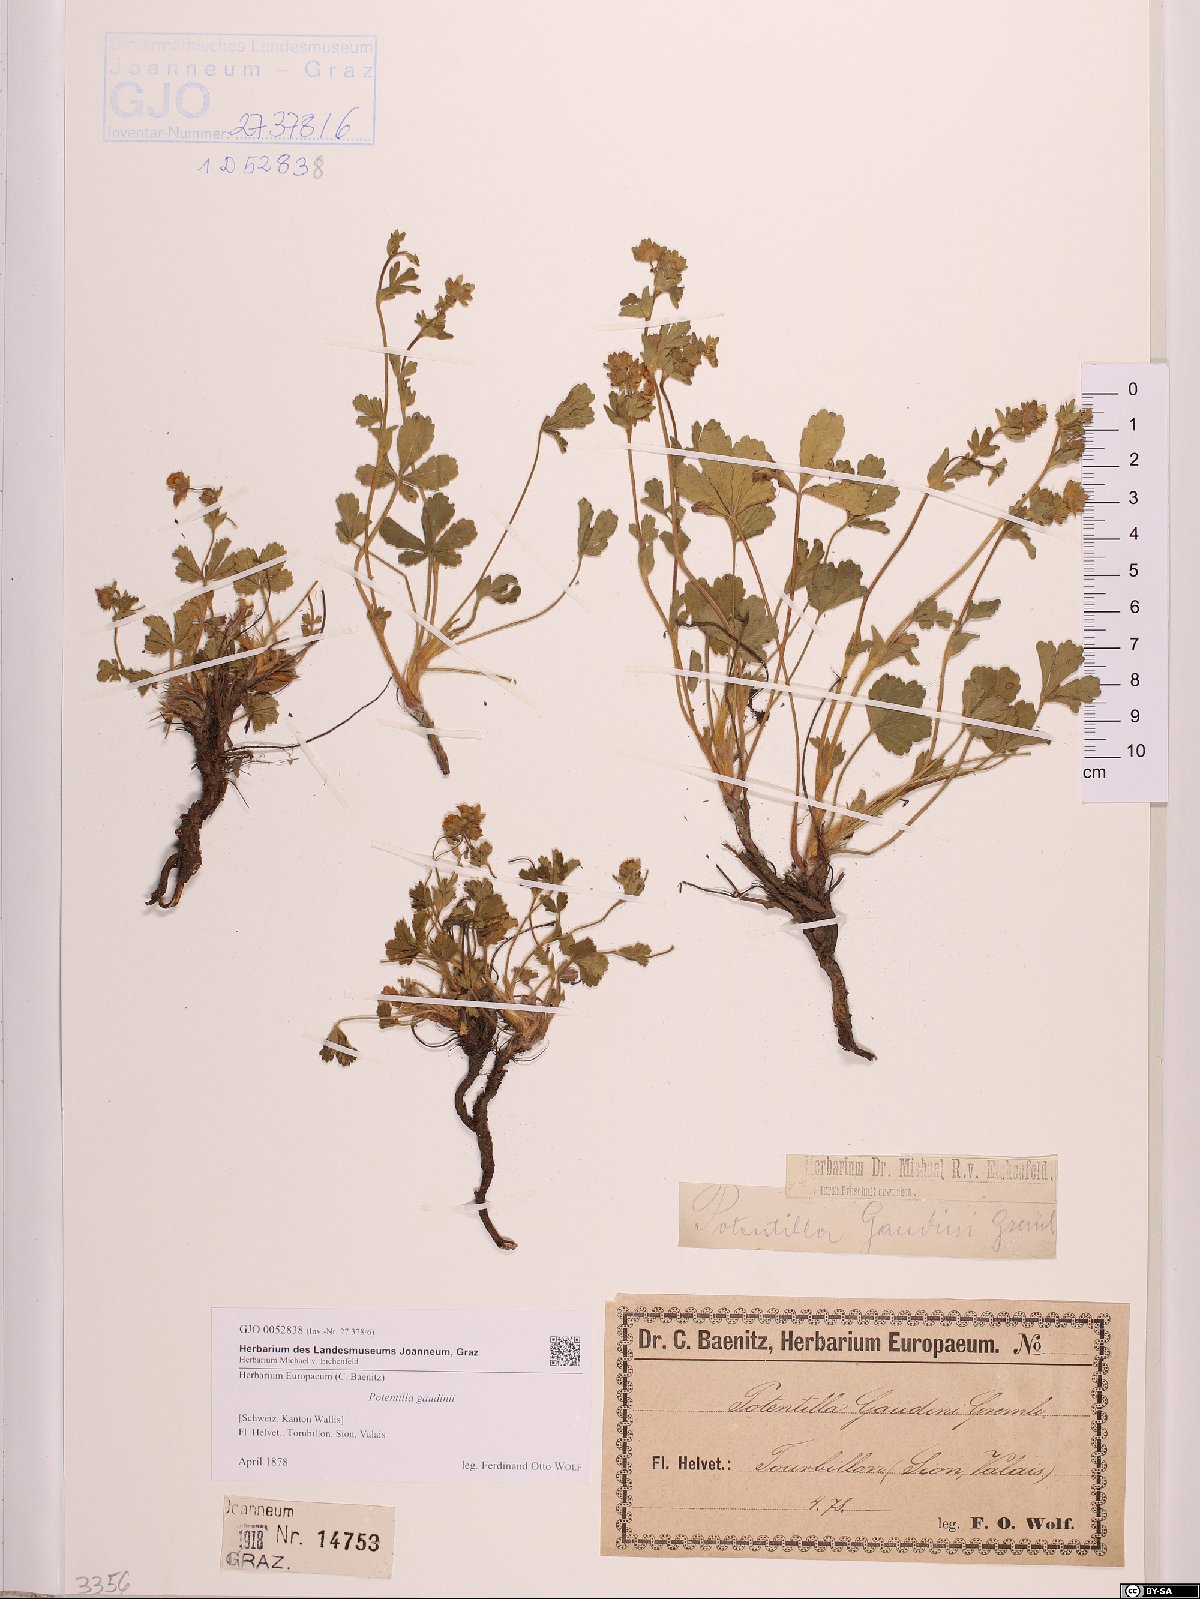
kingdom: Plantae
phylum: Tracheophyta
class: Magnoliopsida
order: Rosales
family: Rosaceae
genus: Potentilla
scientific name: Potentilla pusilla
